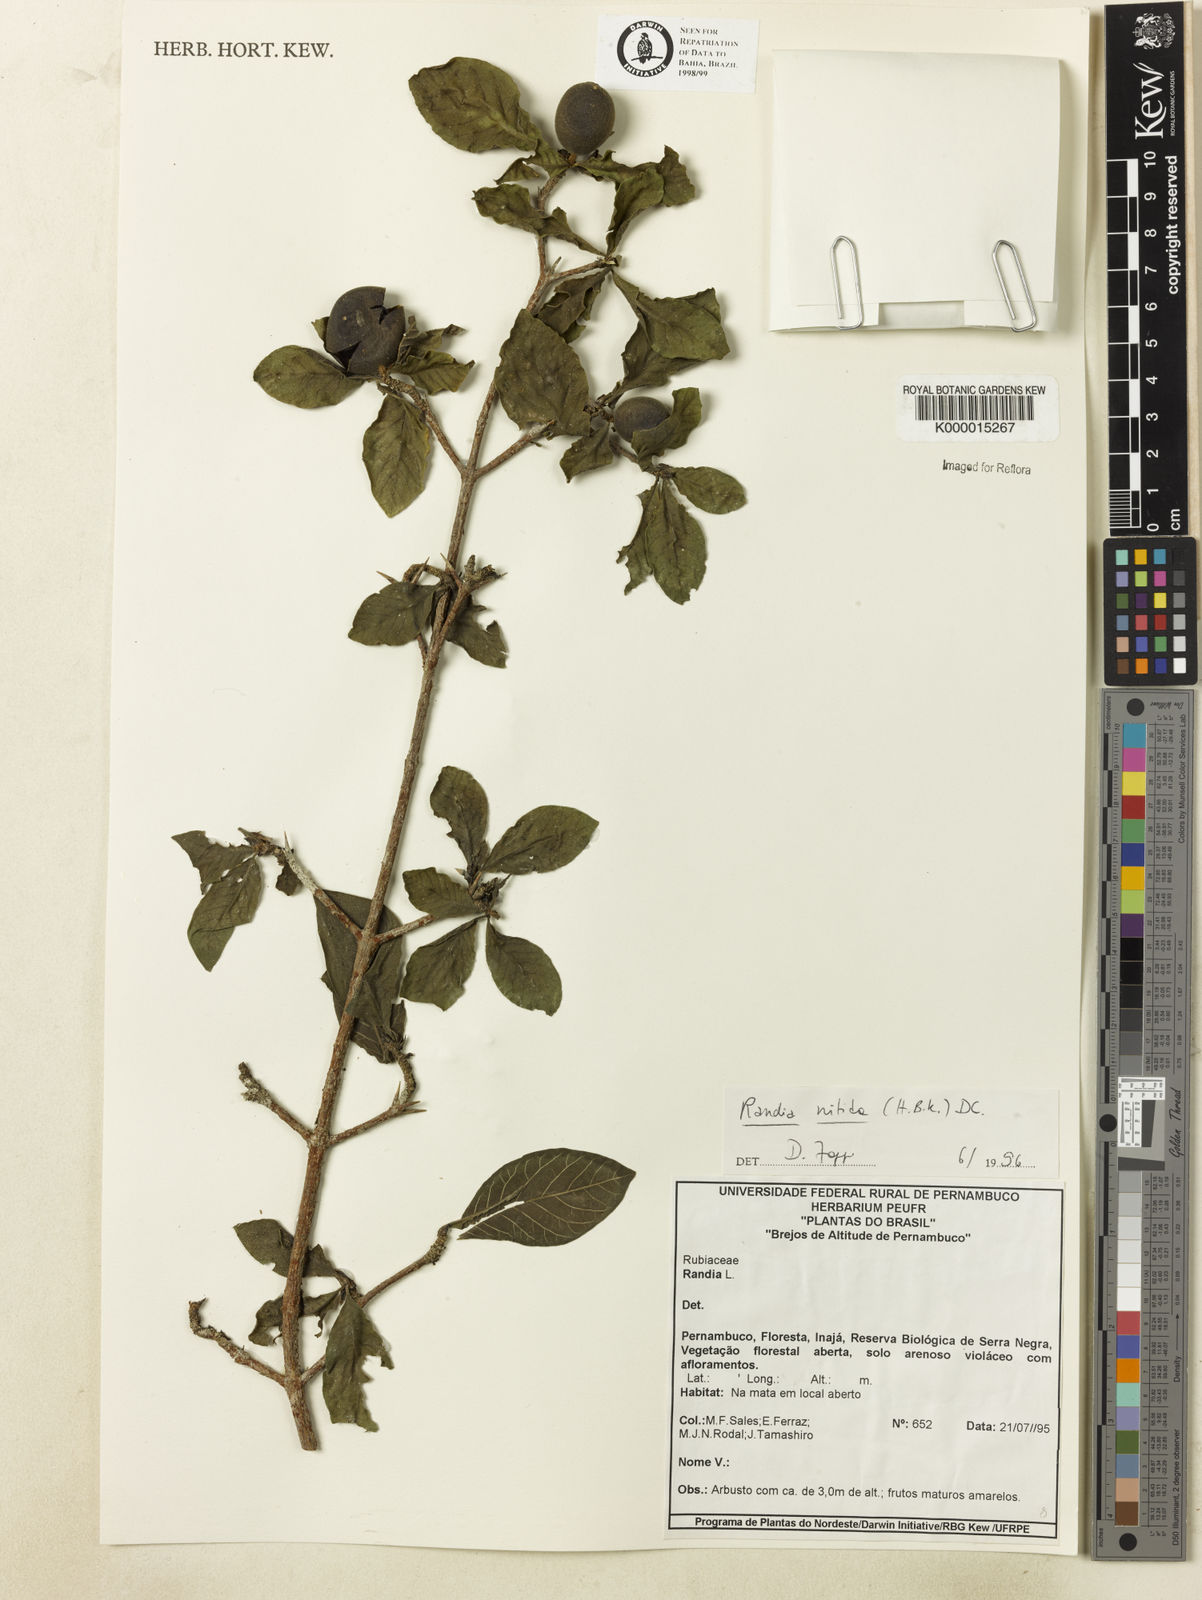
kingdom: Plantae
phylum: Tracheophyta
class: Magnoliopsida
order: Gentianales
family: Rubiaceae
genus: Randia
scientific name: Randia nitida
